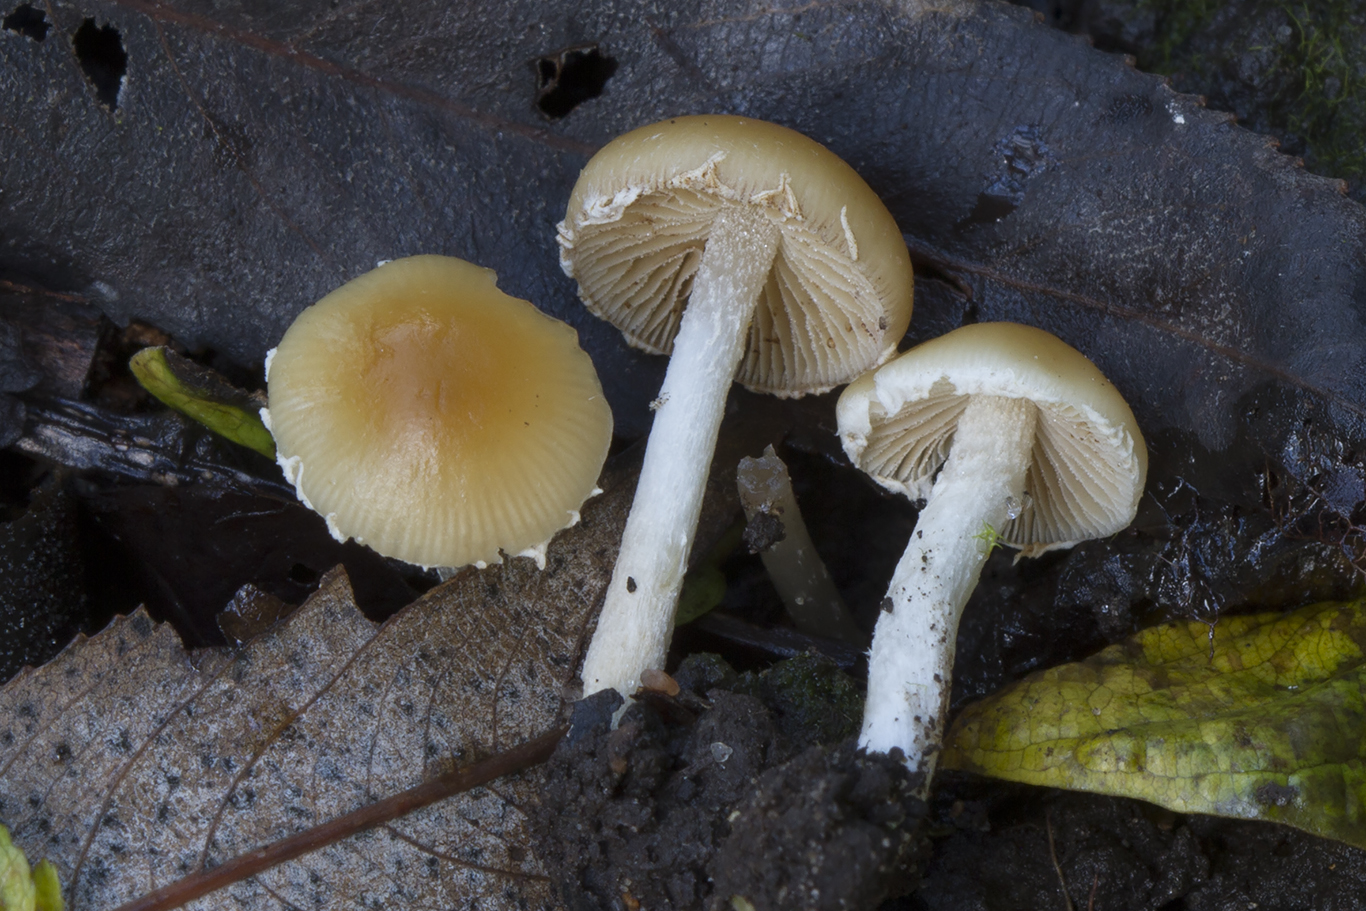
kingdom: Fungi
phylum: Basidiomycota
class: Agaricomycetes
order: Agaricales
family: Bolbitiaceae
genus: Conocybe
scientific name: Conocybe velata
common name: tandet dansehat
